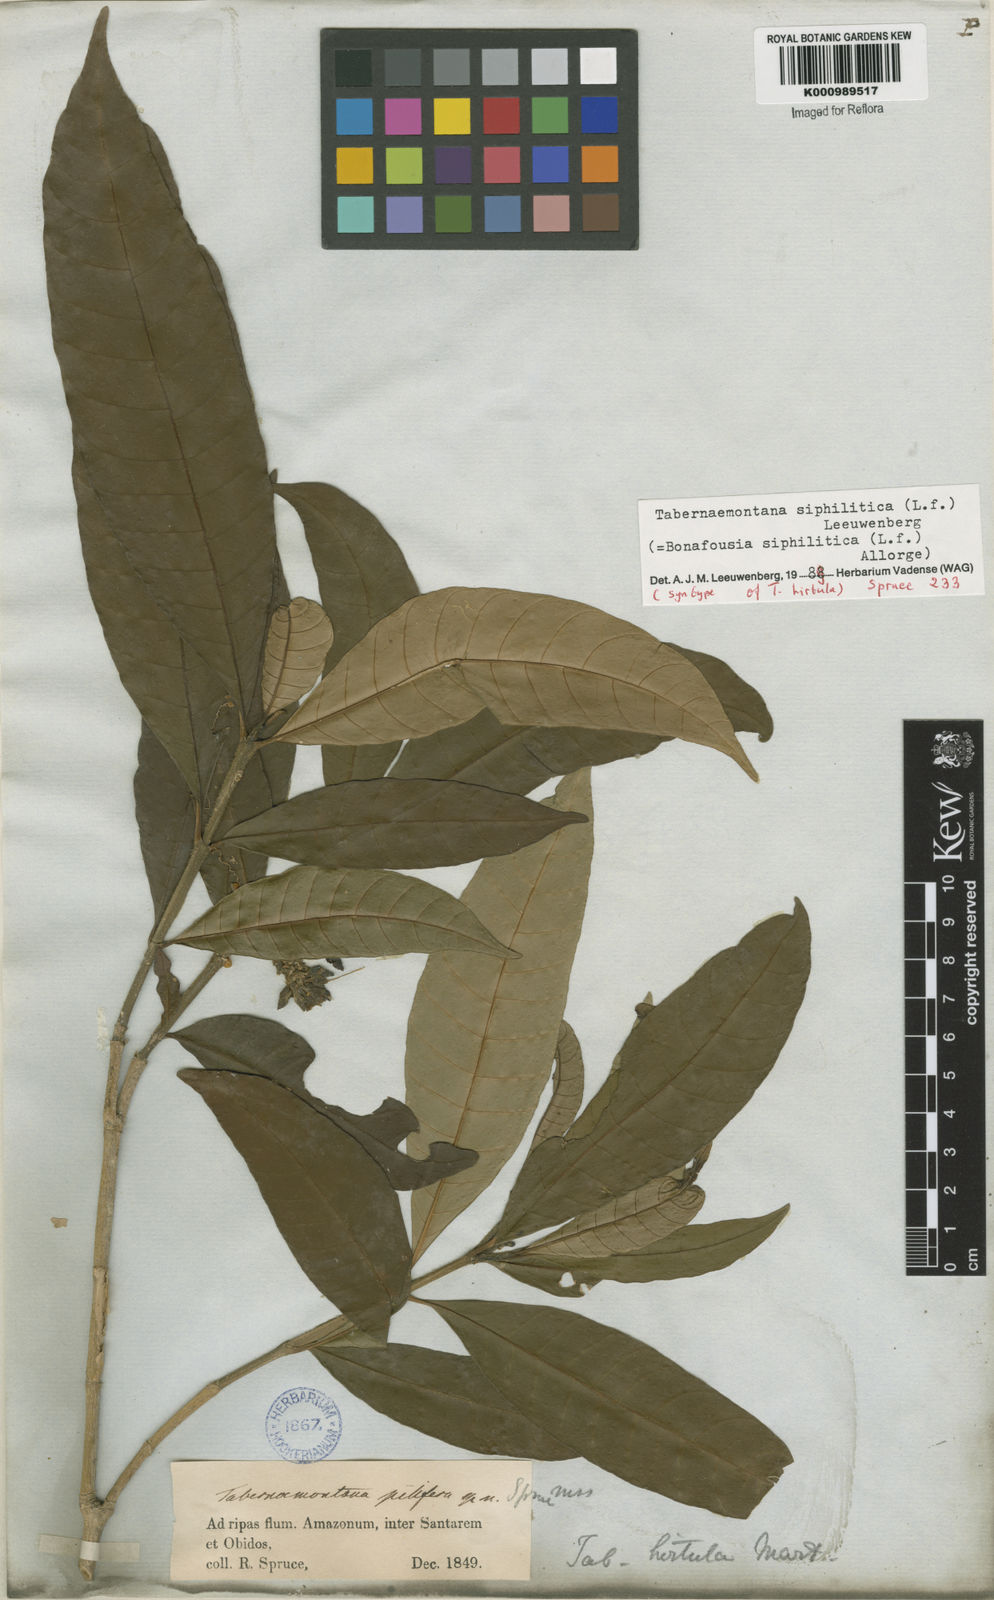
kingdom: Plantae
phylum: Tracheophyta
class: Magnoliopsida
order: Gentianales
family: Apocynaceae
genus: Tabernaemontana
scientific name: Tabernaemontana siphilitica
